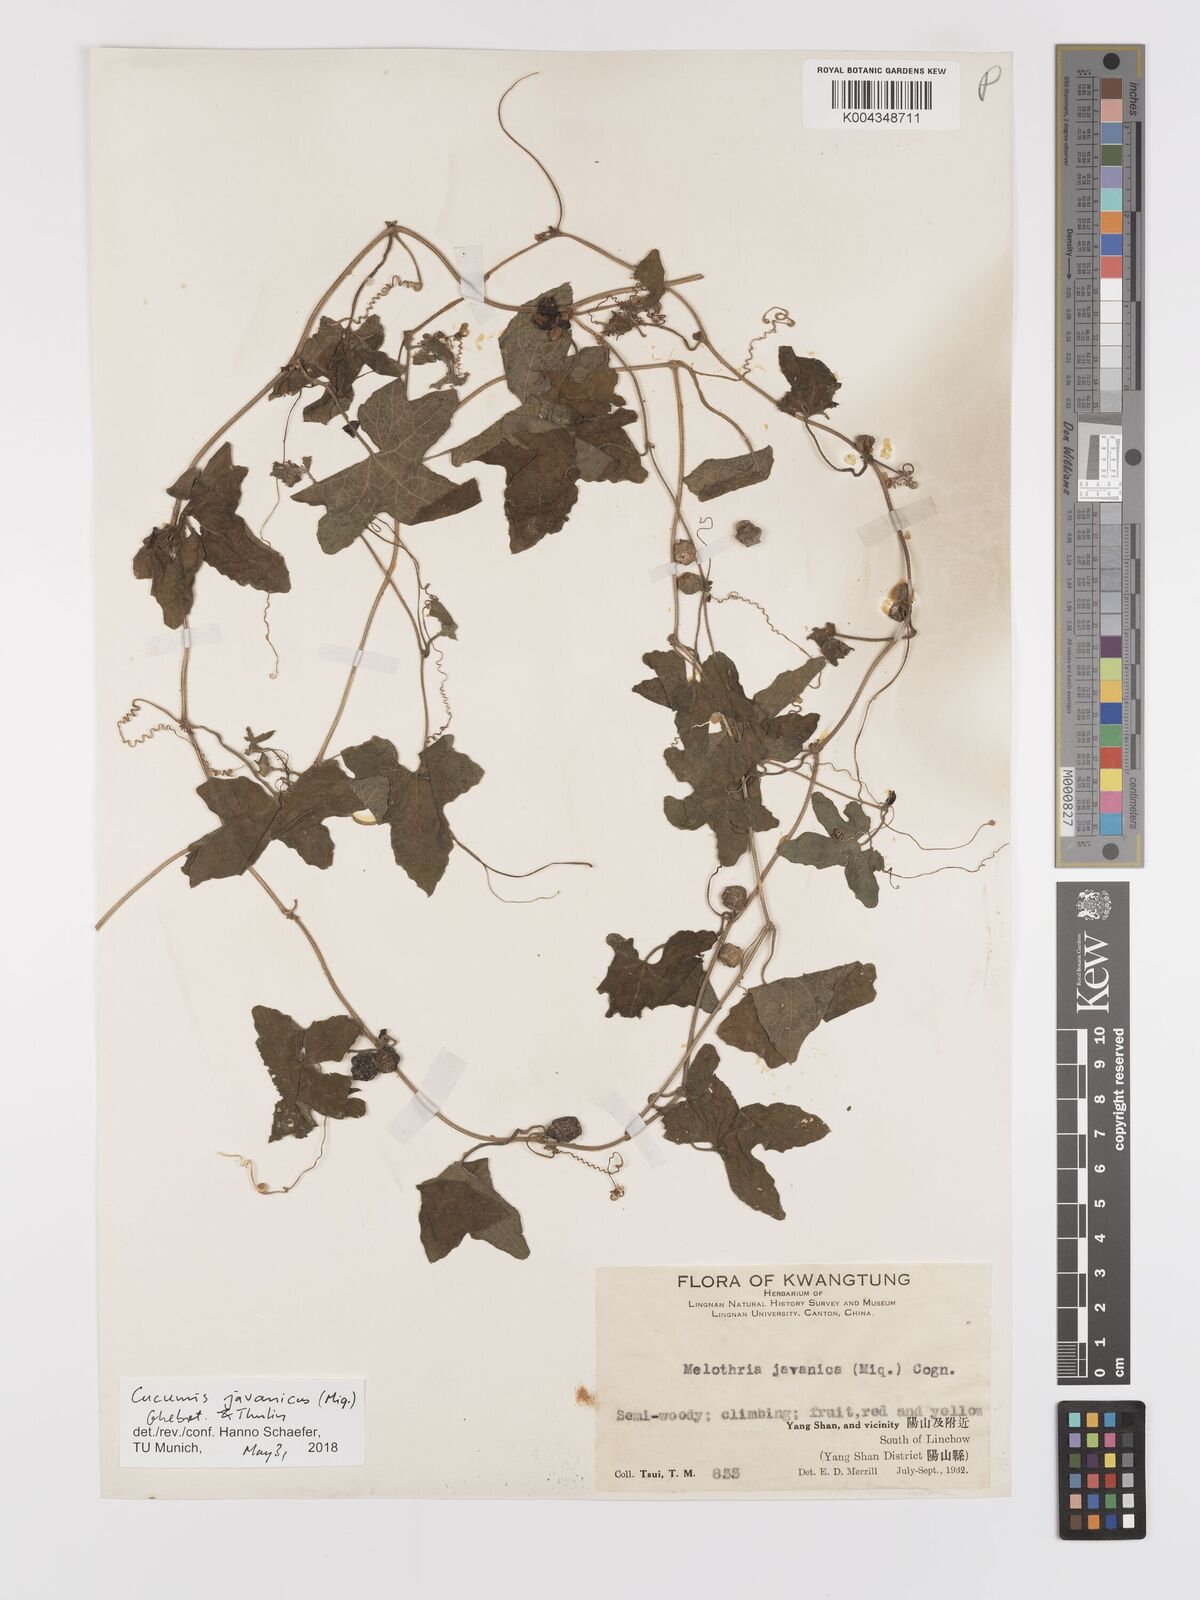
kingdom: Plantae
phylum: Tracheophyta
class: Magnoliopsida
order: Cucurbitales
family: Cucurbitaceae
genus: Cucumis
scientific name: Cucumis javanicus
